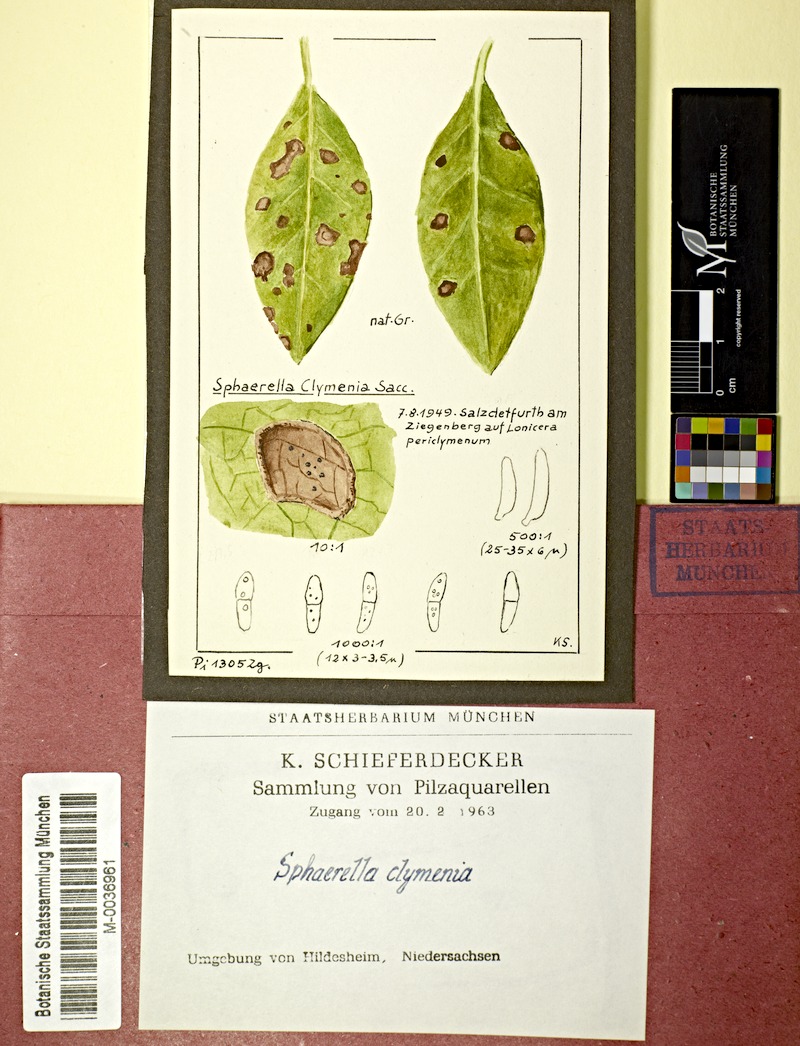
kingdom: Fungi
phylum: Ascomycota
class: Dothideomycetes
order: Mycosphaerellales
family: Mycosphaerellaceae
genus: Mycosphaerella
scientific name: Mycosphaerella clymenia
